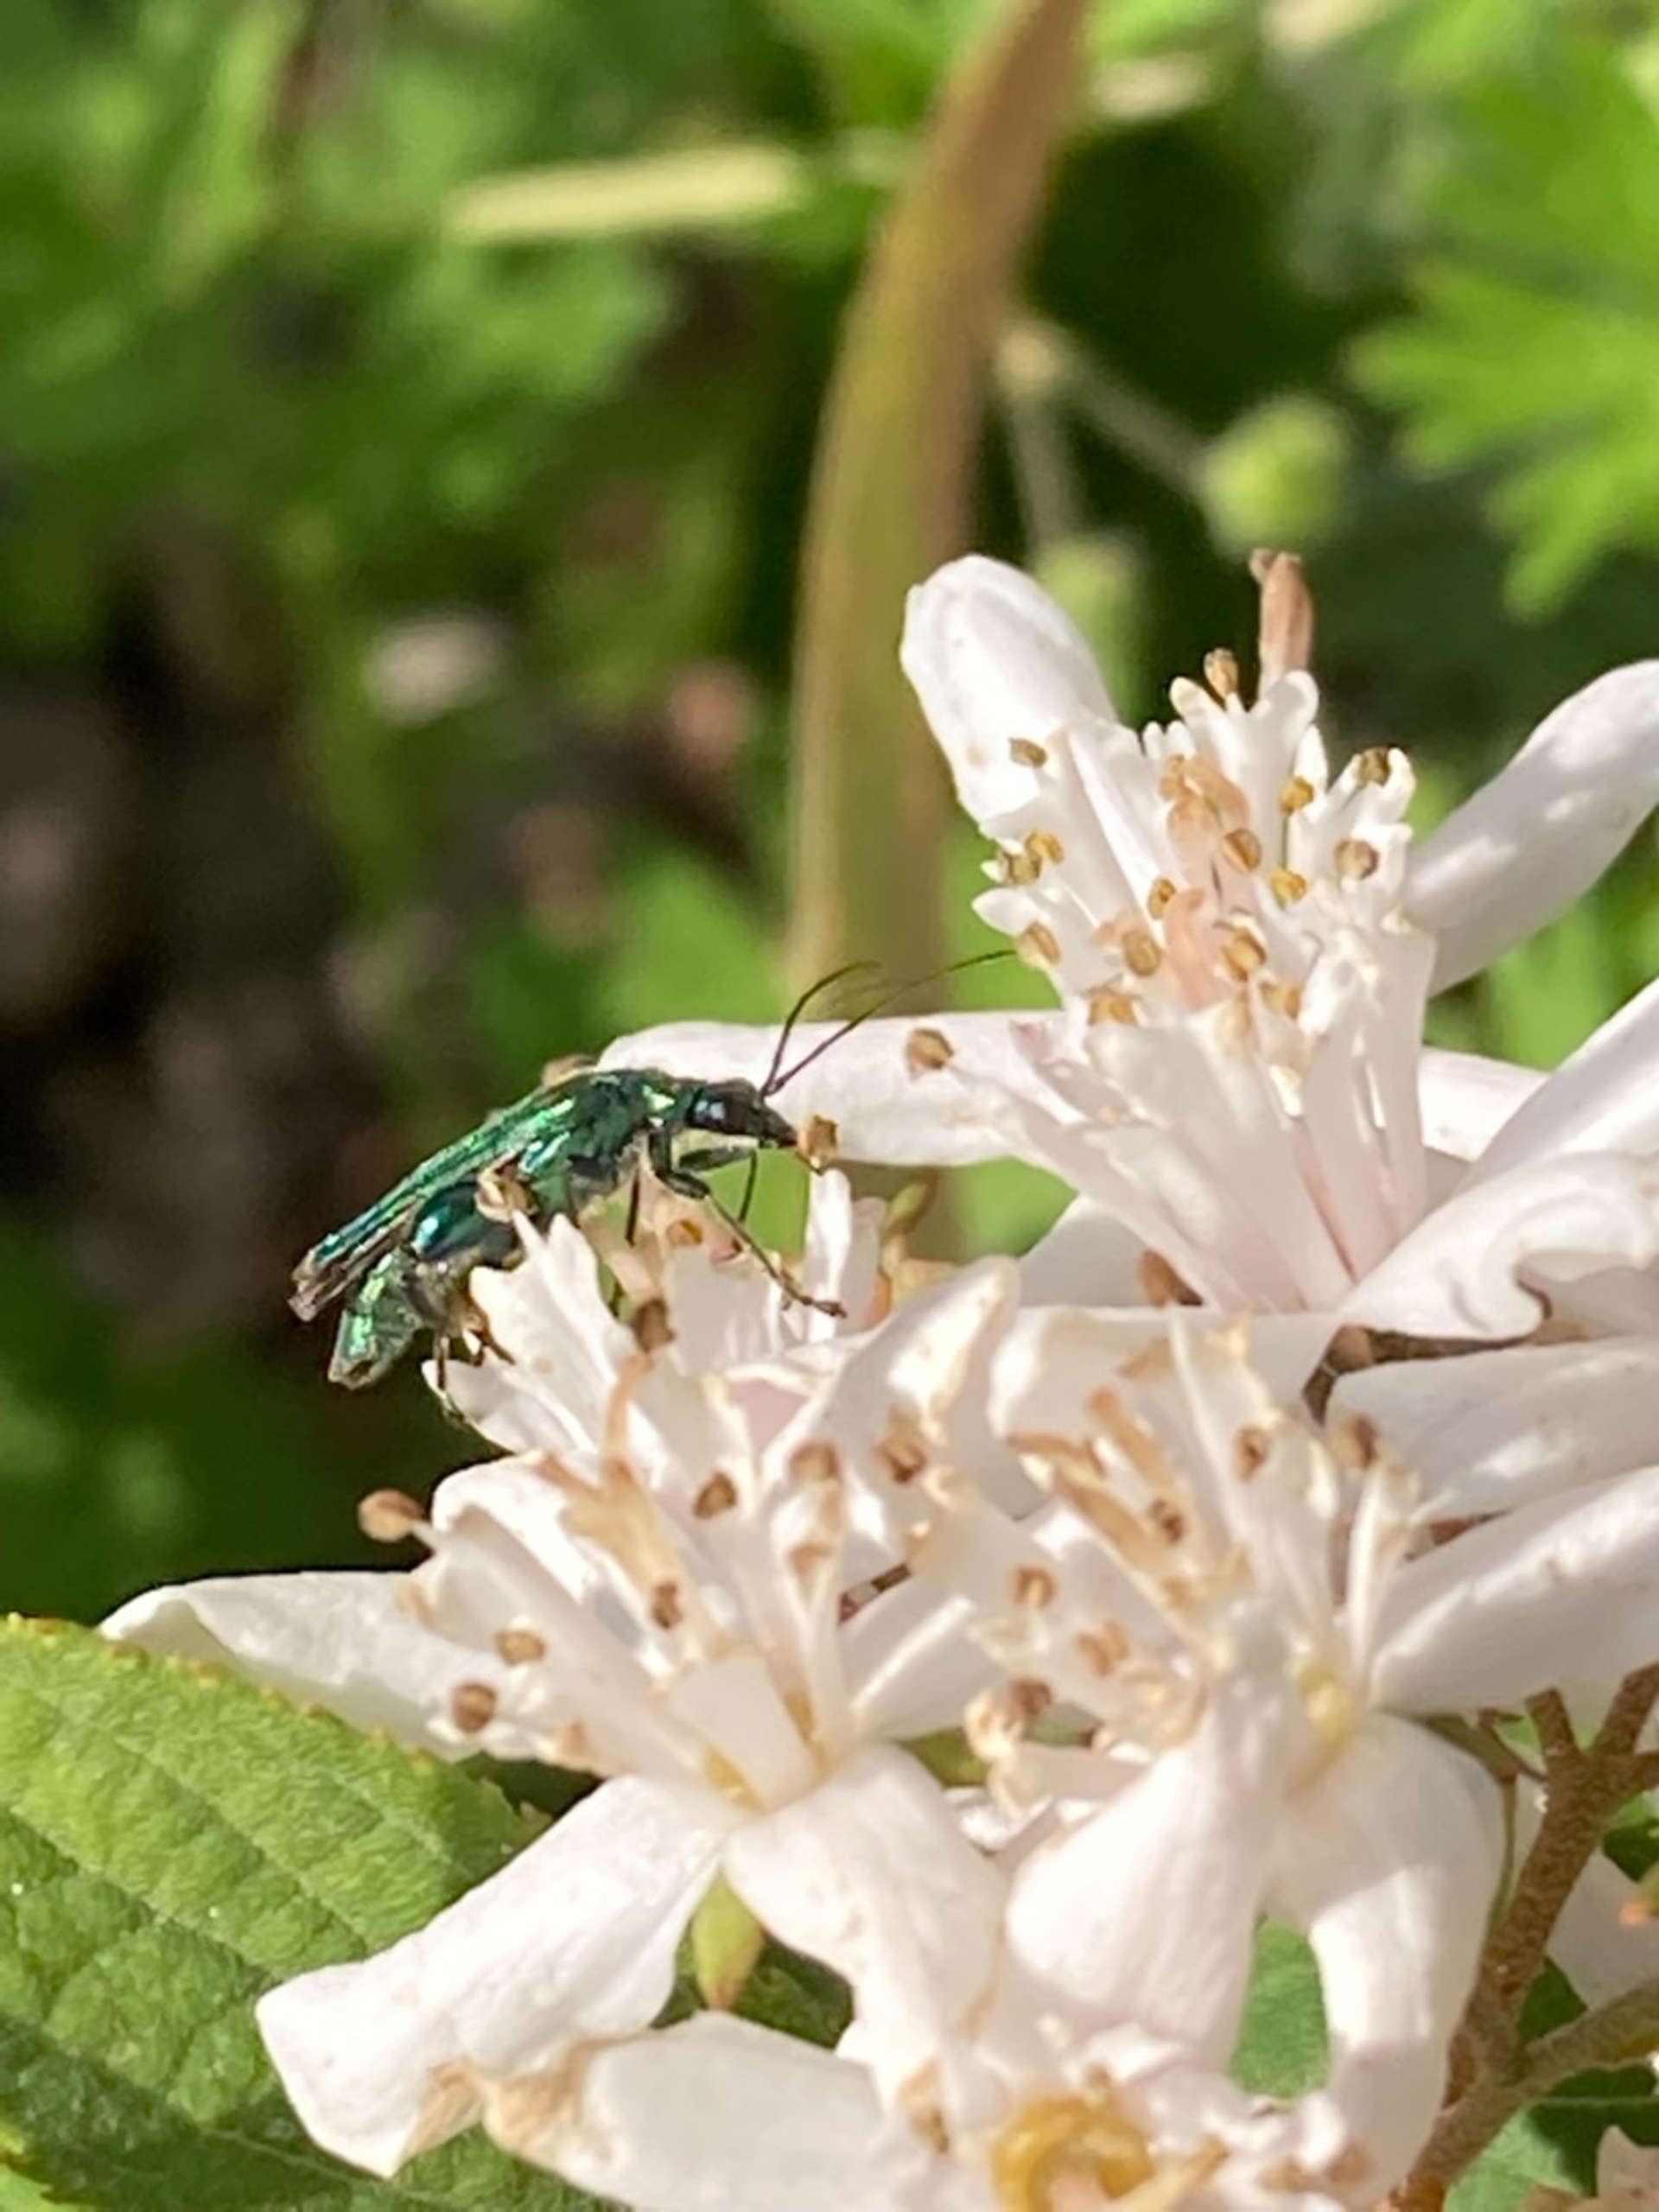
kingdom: Animalia
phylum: Arthropoda
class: Insecta
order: Coleoptera
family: Oedemeridae
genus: Oedemera
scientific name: Oedemera nobilis
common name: Tyklårssolbille
